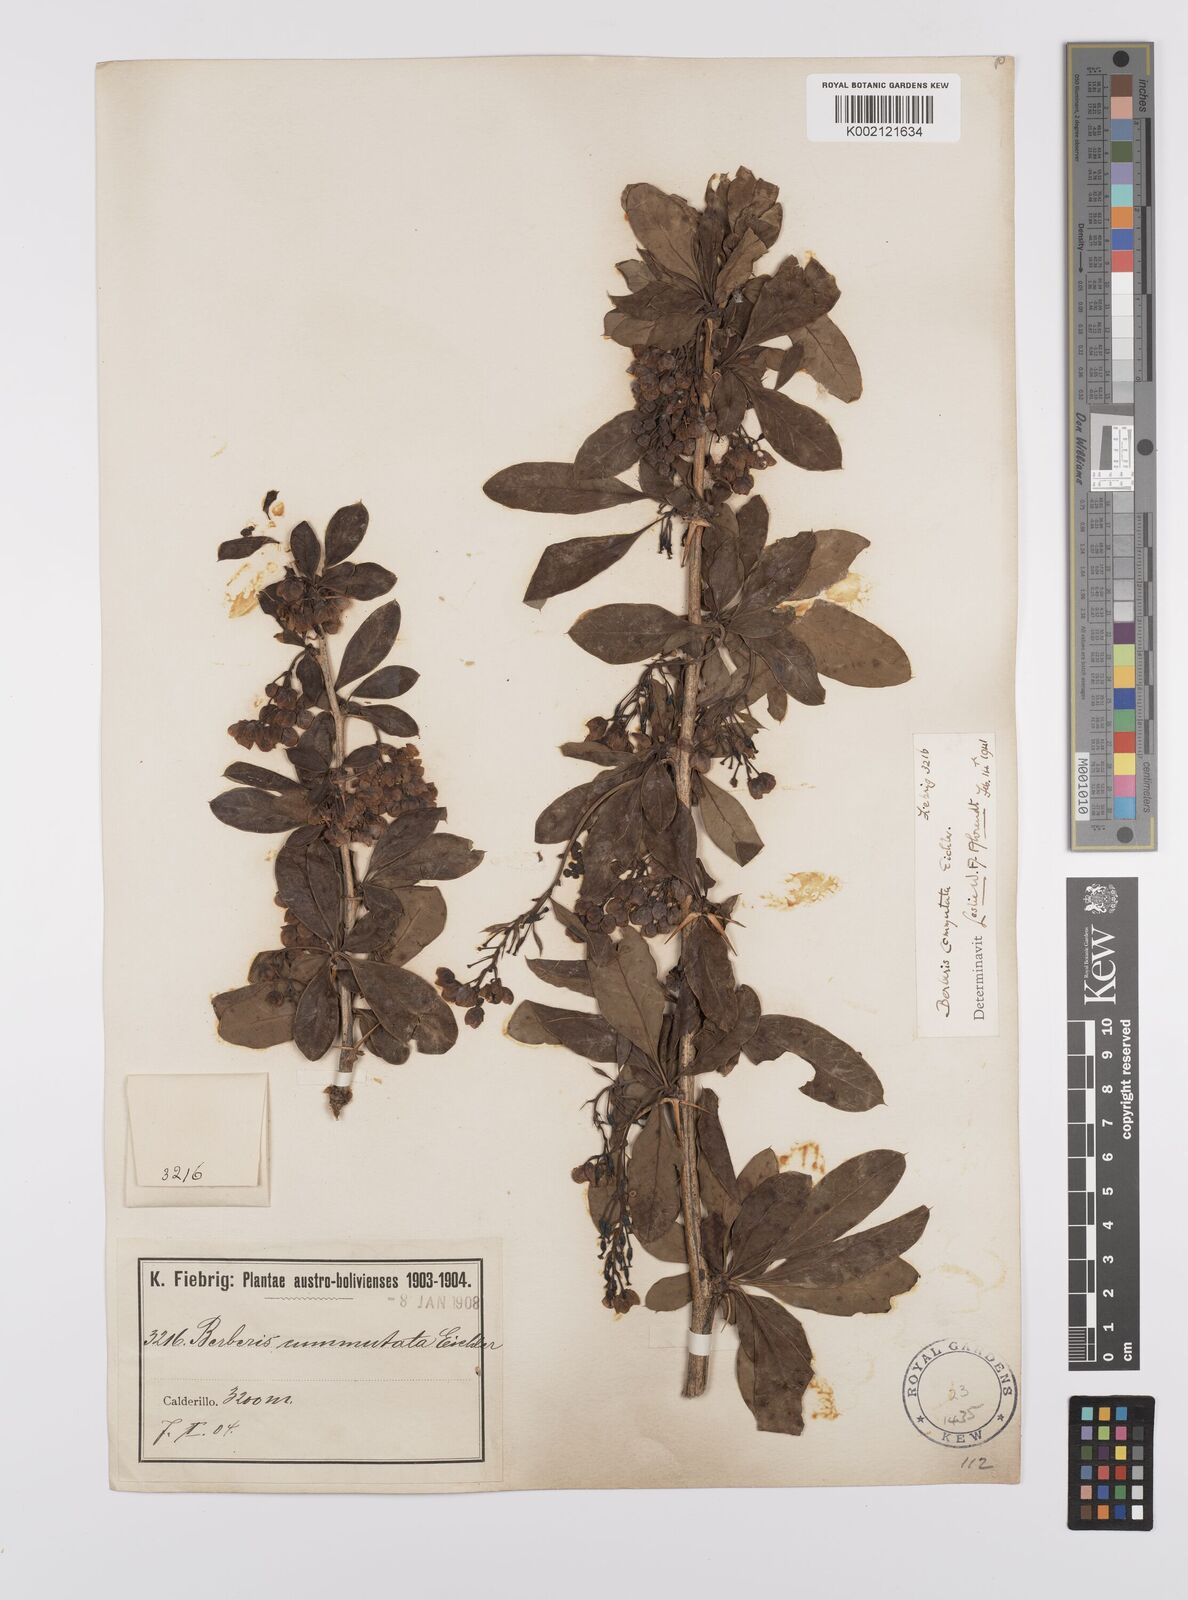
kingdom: Plantae
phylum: Tracheophyta
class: Magnoliopsida
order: Ranunculales
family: Berberidaceae
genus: Berberis
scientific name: Berberis commutata
